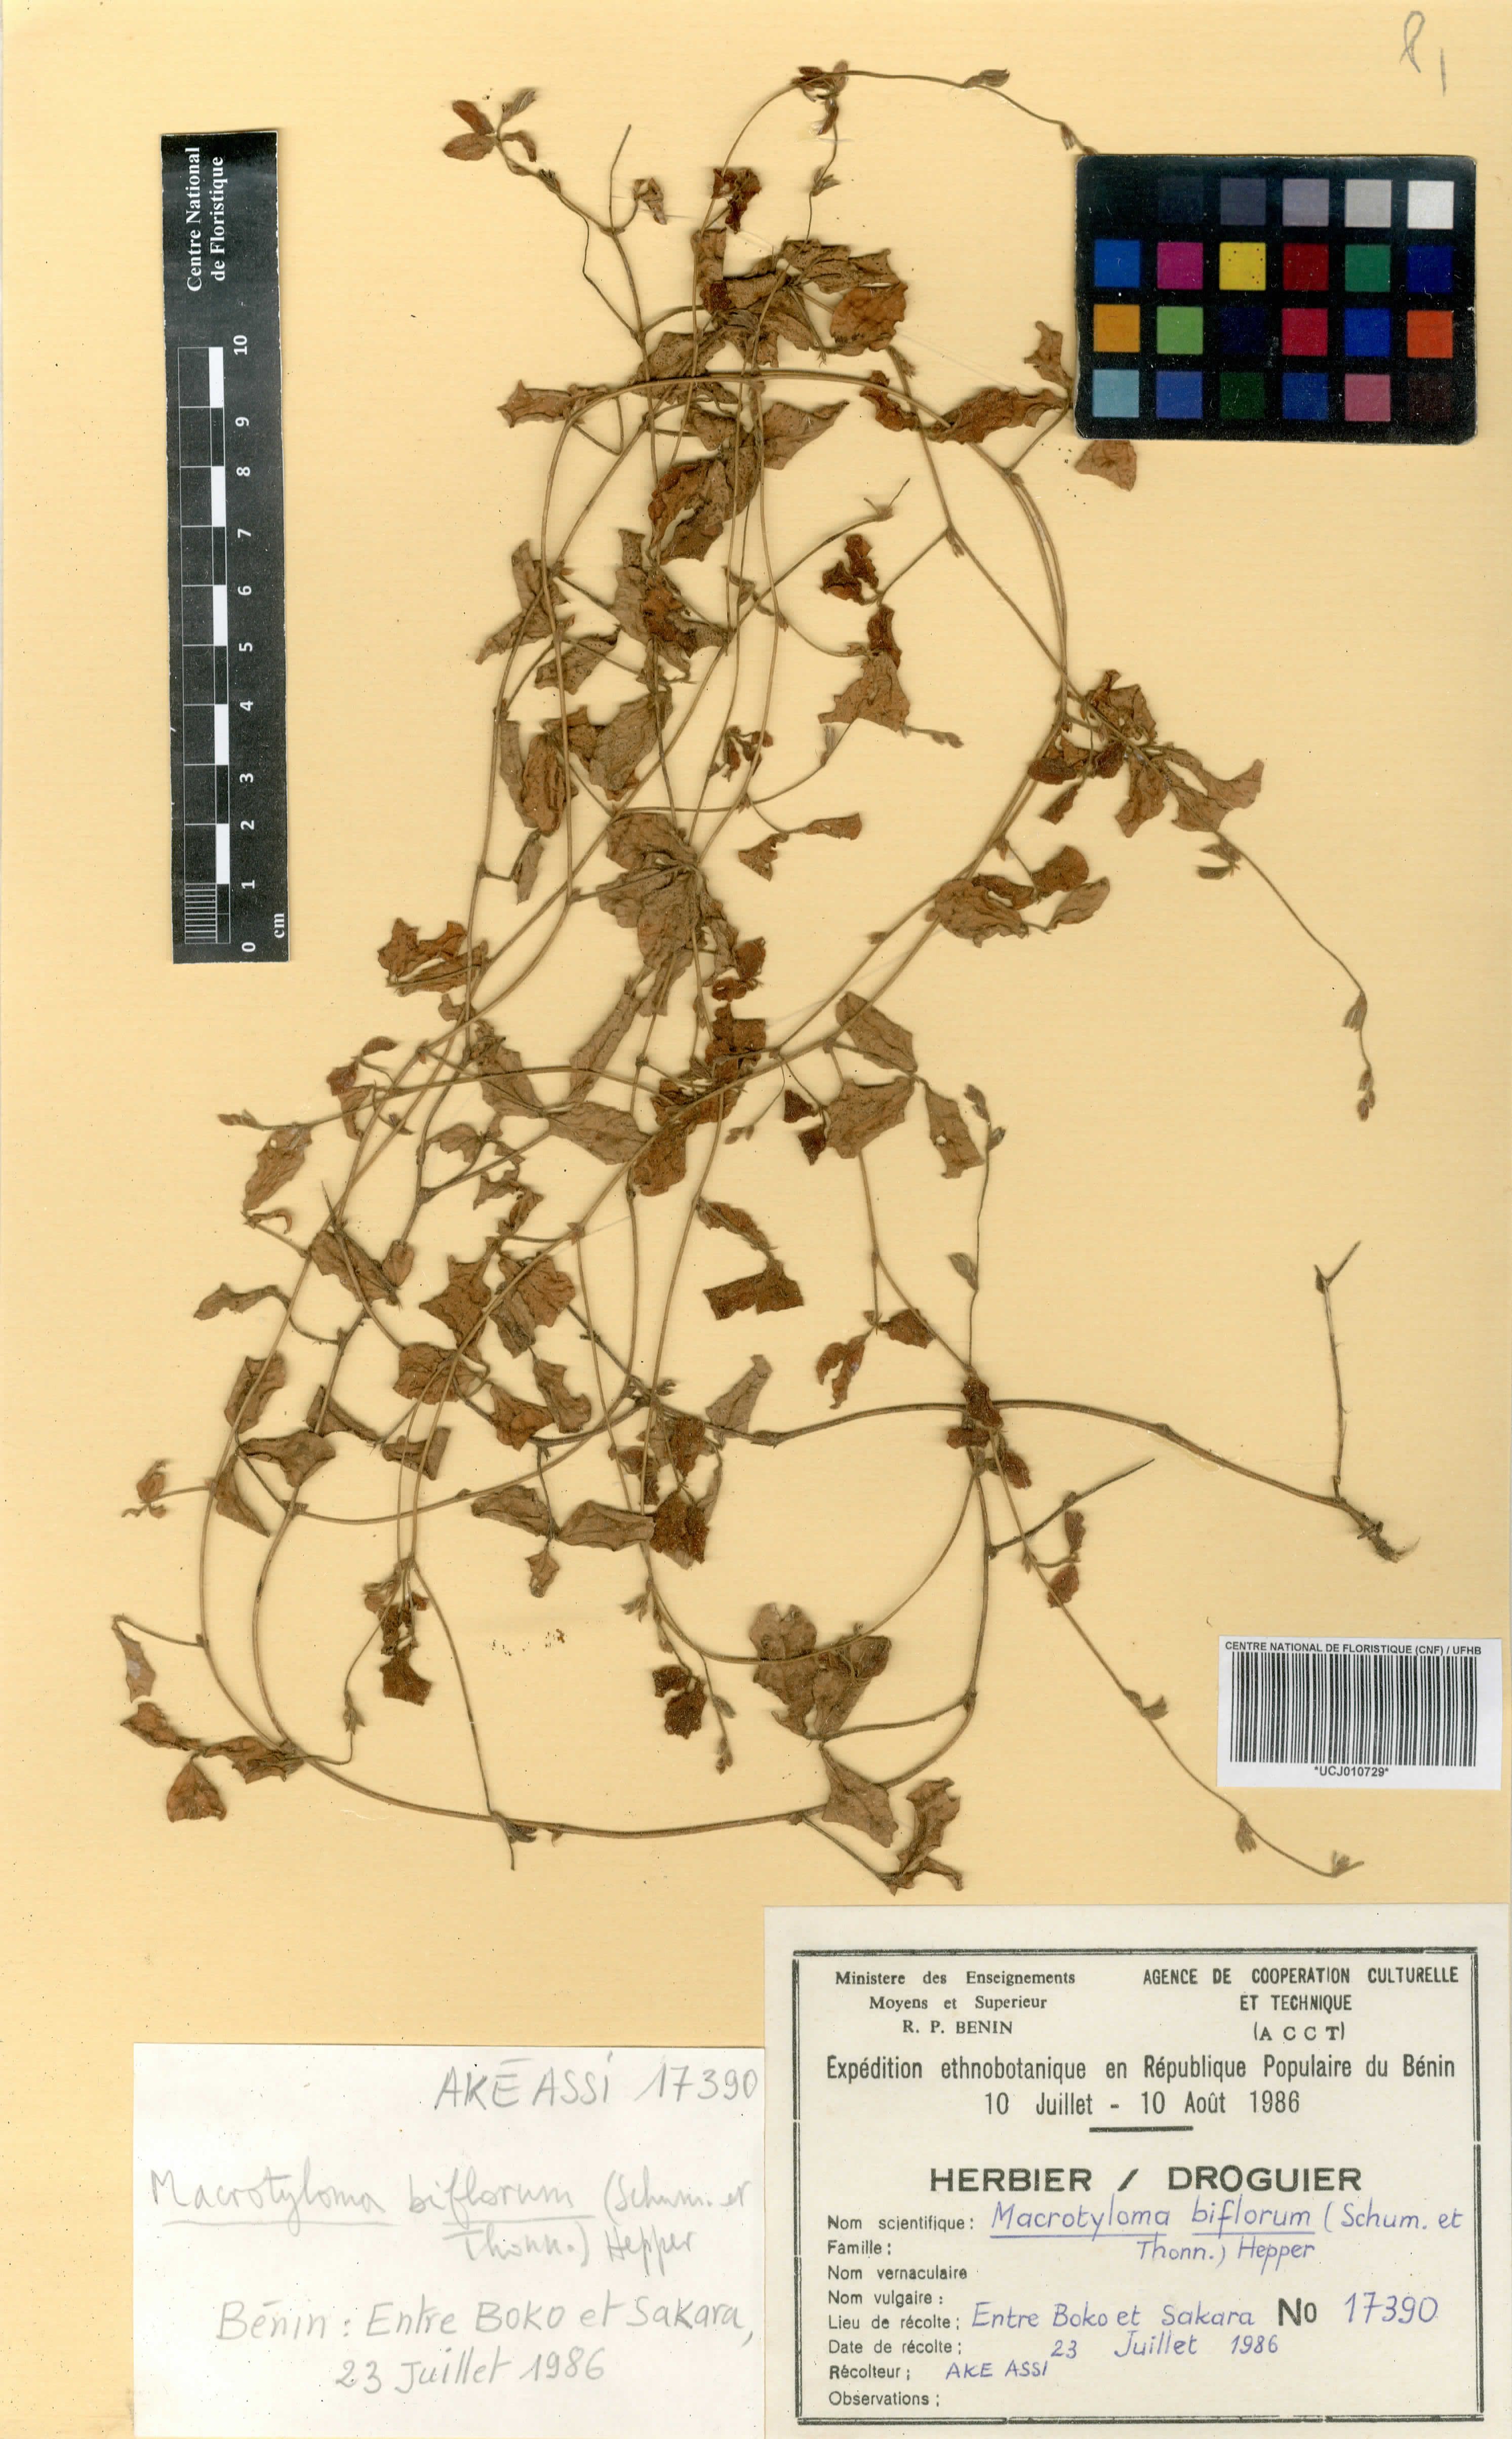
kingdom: Plantae
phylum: Tracheophyta
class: Magnoliopsida
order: Fabales
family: Fabaceae
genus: Macrotyloma
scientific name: Macrotyloma biflorum
